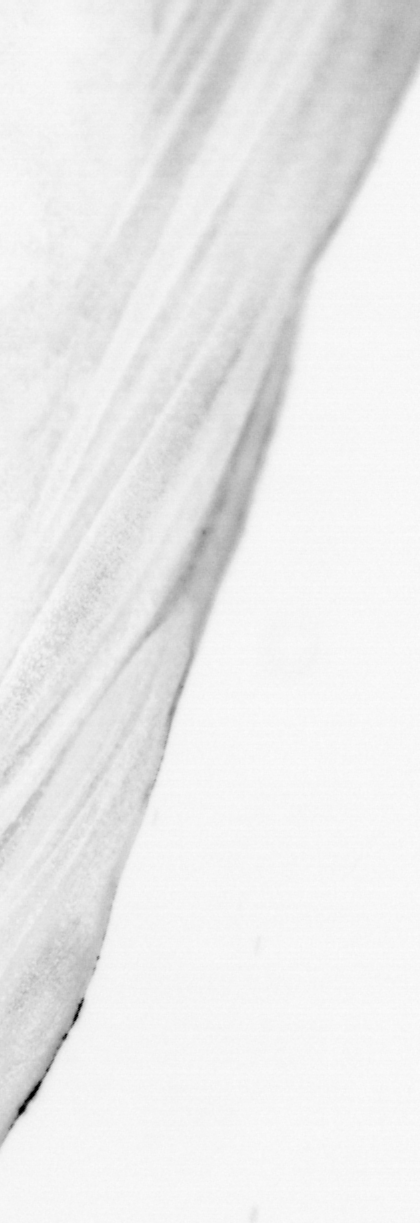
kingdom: Animalia
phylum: Chordata
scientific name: Chordata
